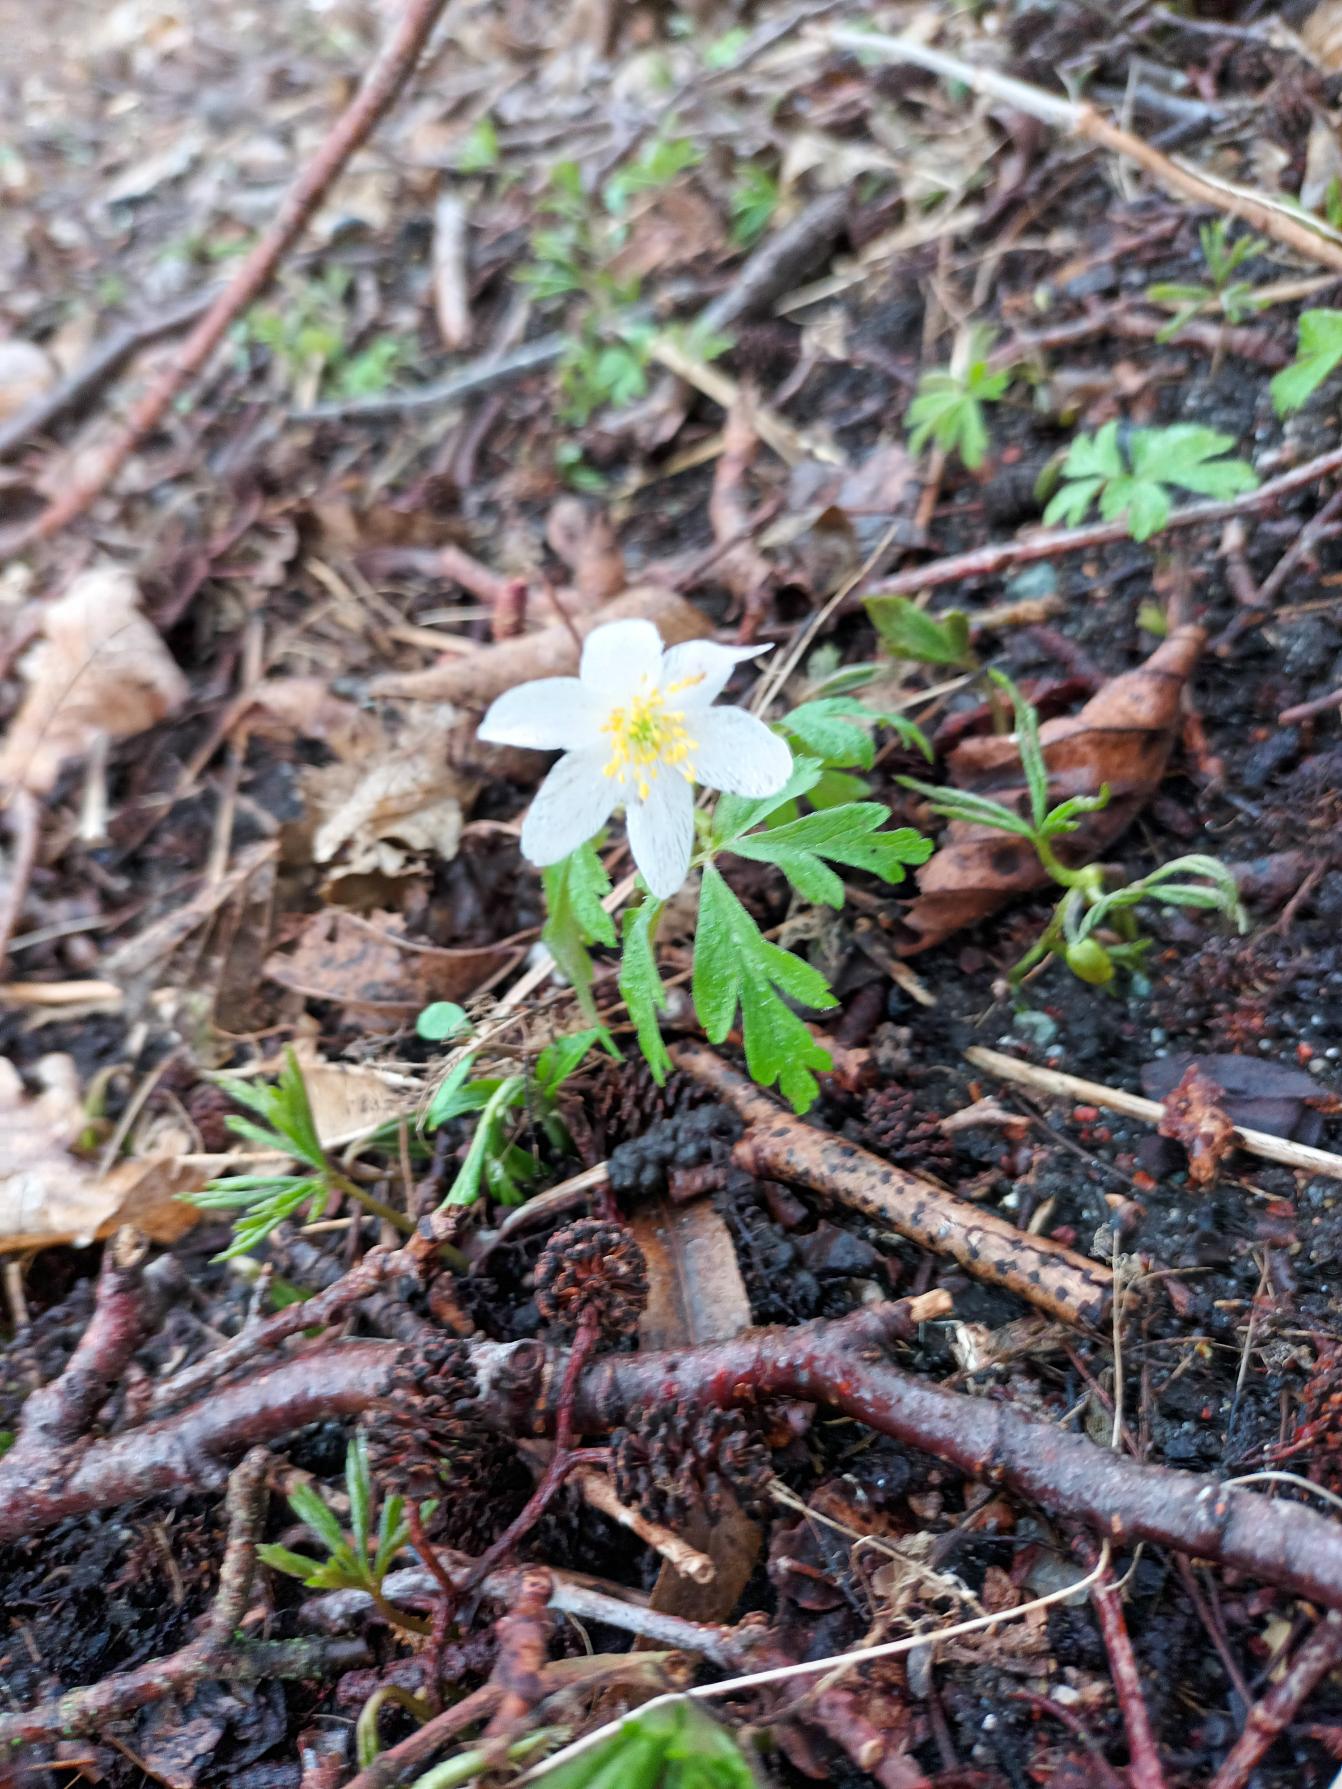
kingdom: Plantae
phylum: Tracheophyta
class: Magnoliopsida
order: Ranunculales
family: Ranunculaceae
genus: Anemone
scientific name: Anemone nemorosa
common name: Hvid anemone
